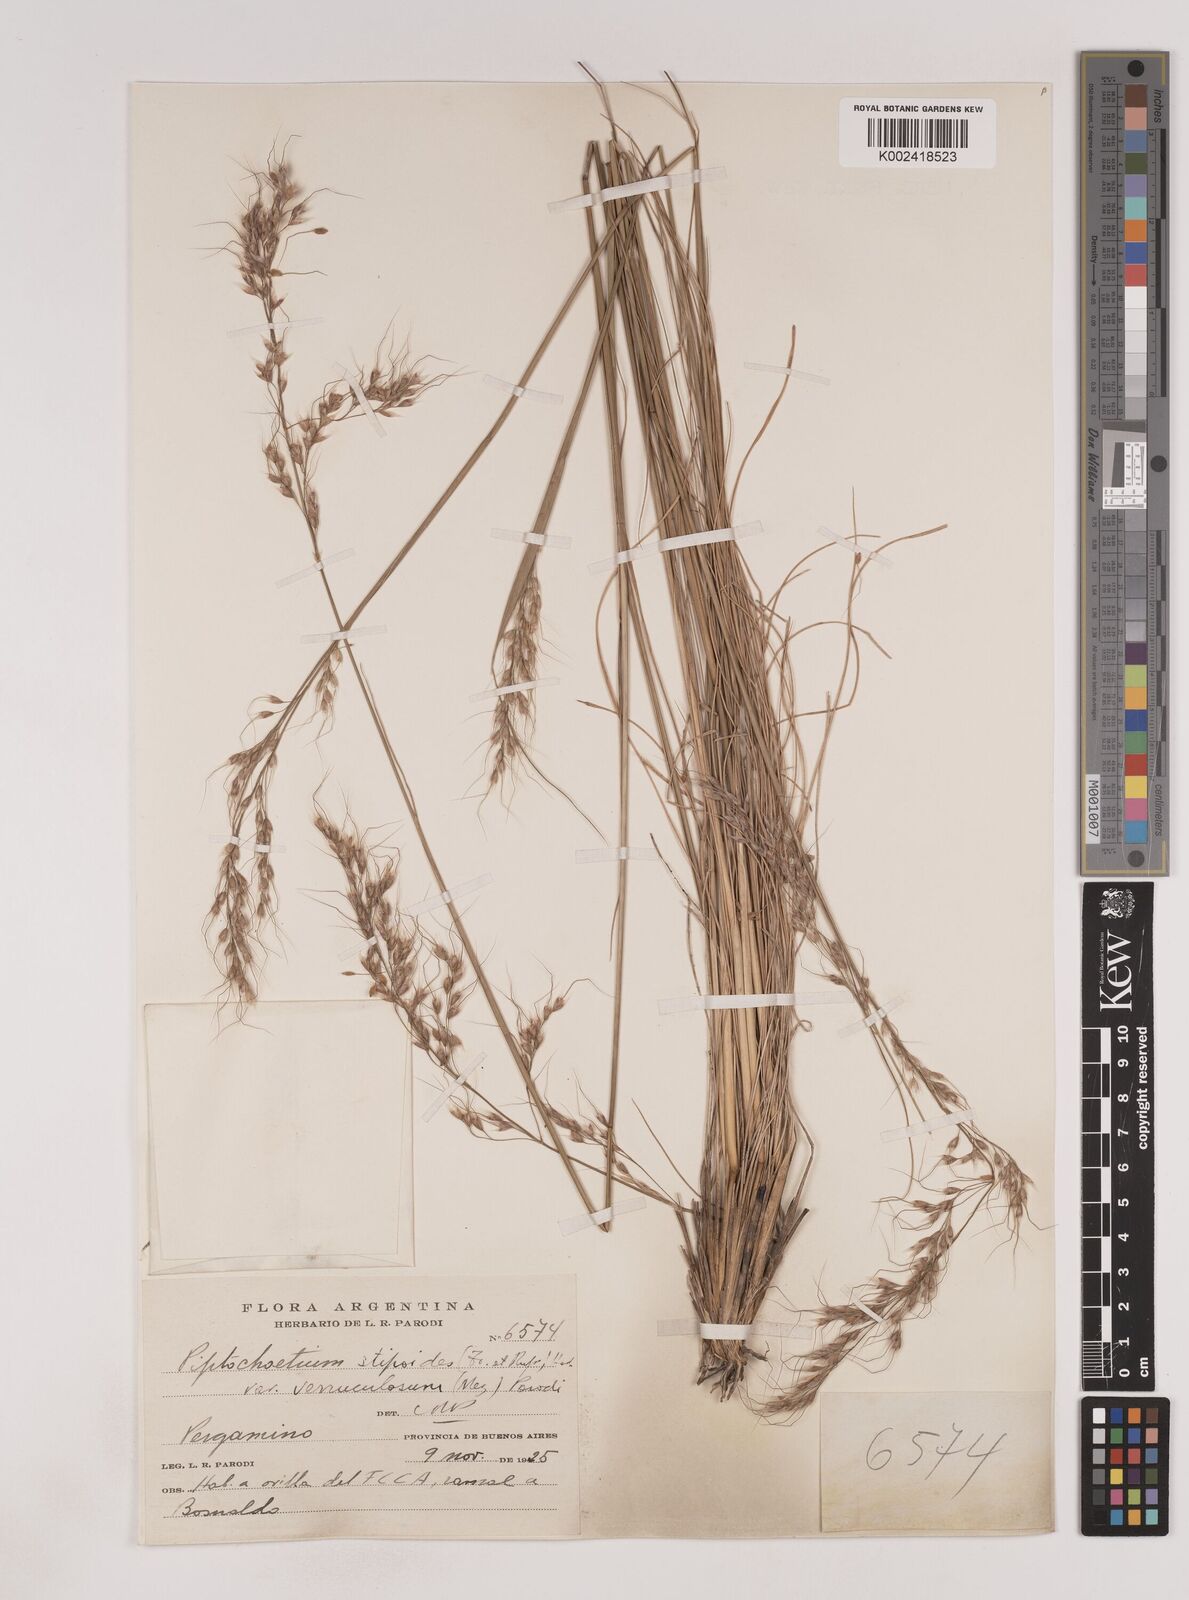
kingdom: Plantae
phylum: Tracheophyta
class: Liliopsida
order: Poales
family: Poaceae
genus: Piptochaetium
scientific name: Piptochaetium stipoides
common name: Purple speargrass
